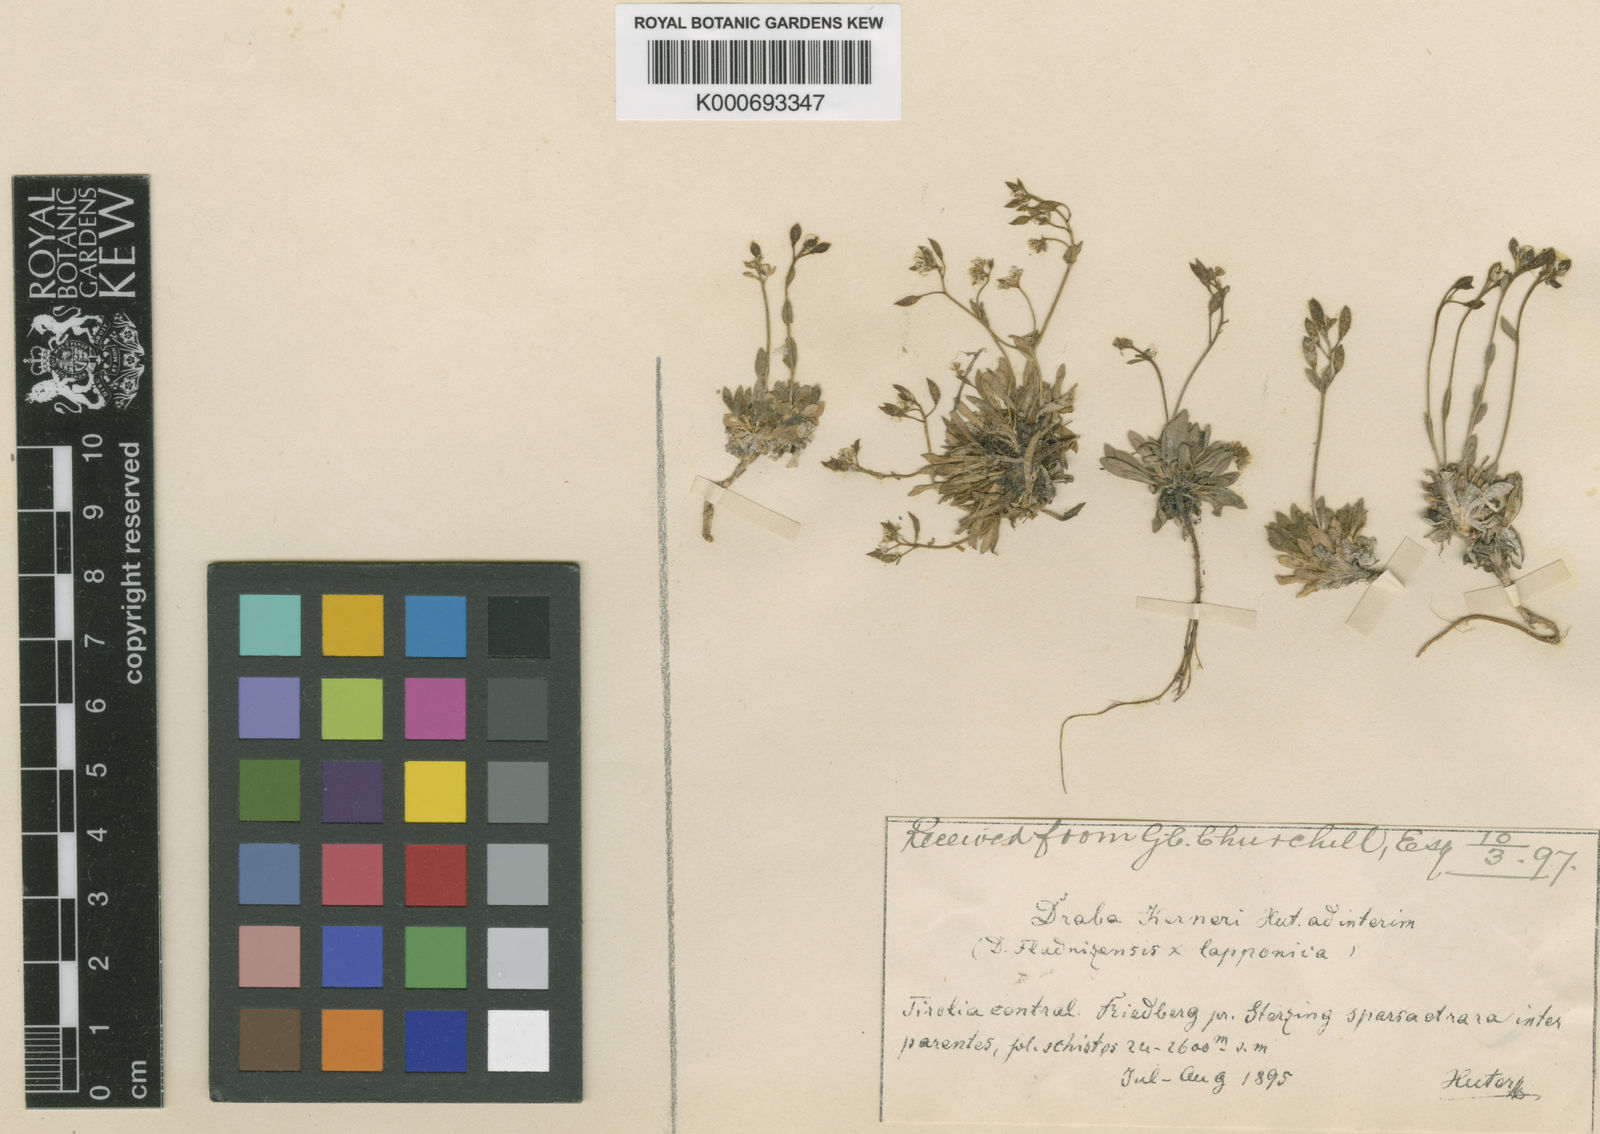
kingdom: Plantae
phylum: Tracheophyta
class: Magnoliopsida
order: Brassicales
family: Brassicaceae
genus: Rorippa
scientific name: Rorippa sylvestris
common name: Creeping yellowcress
